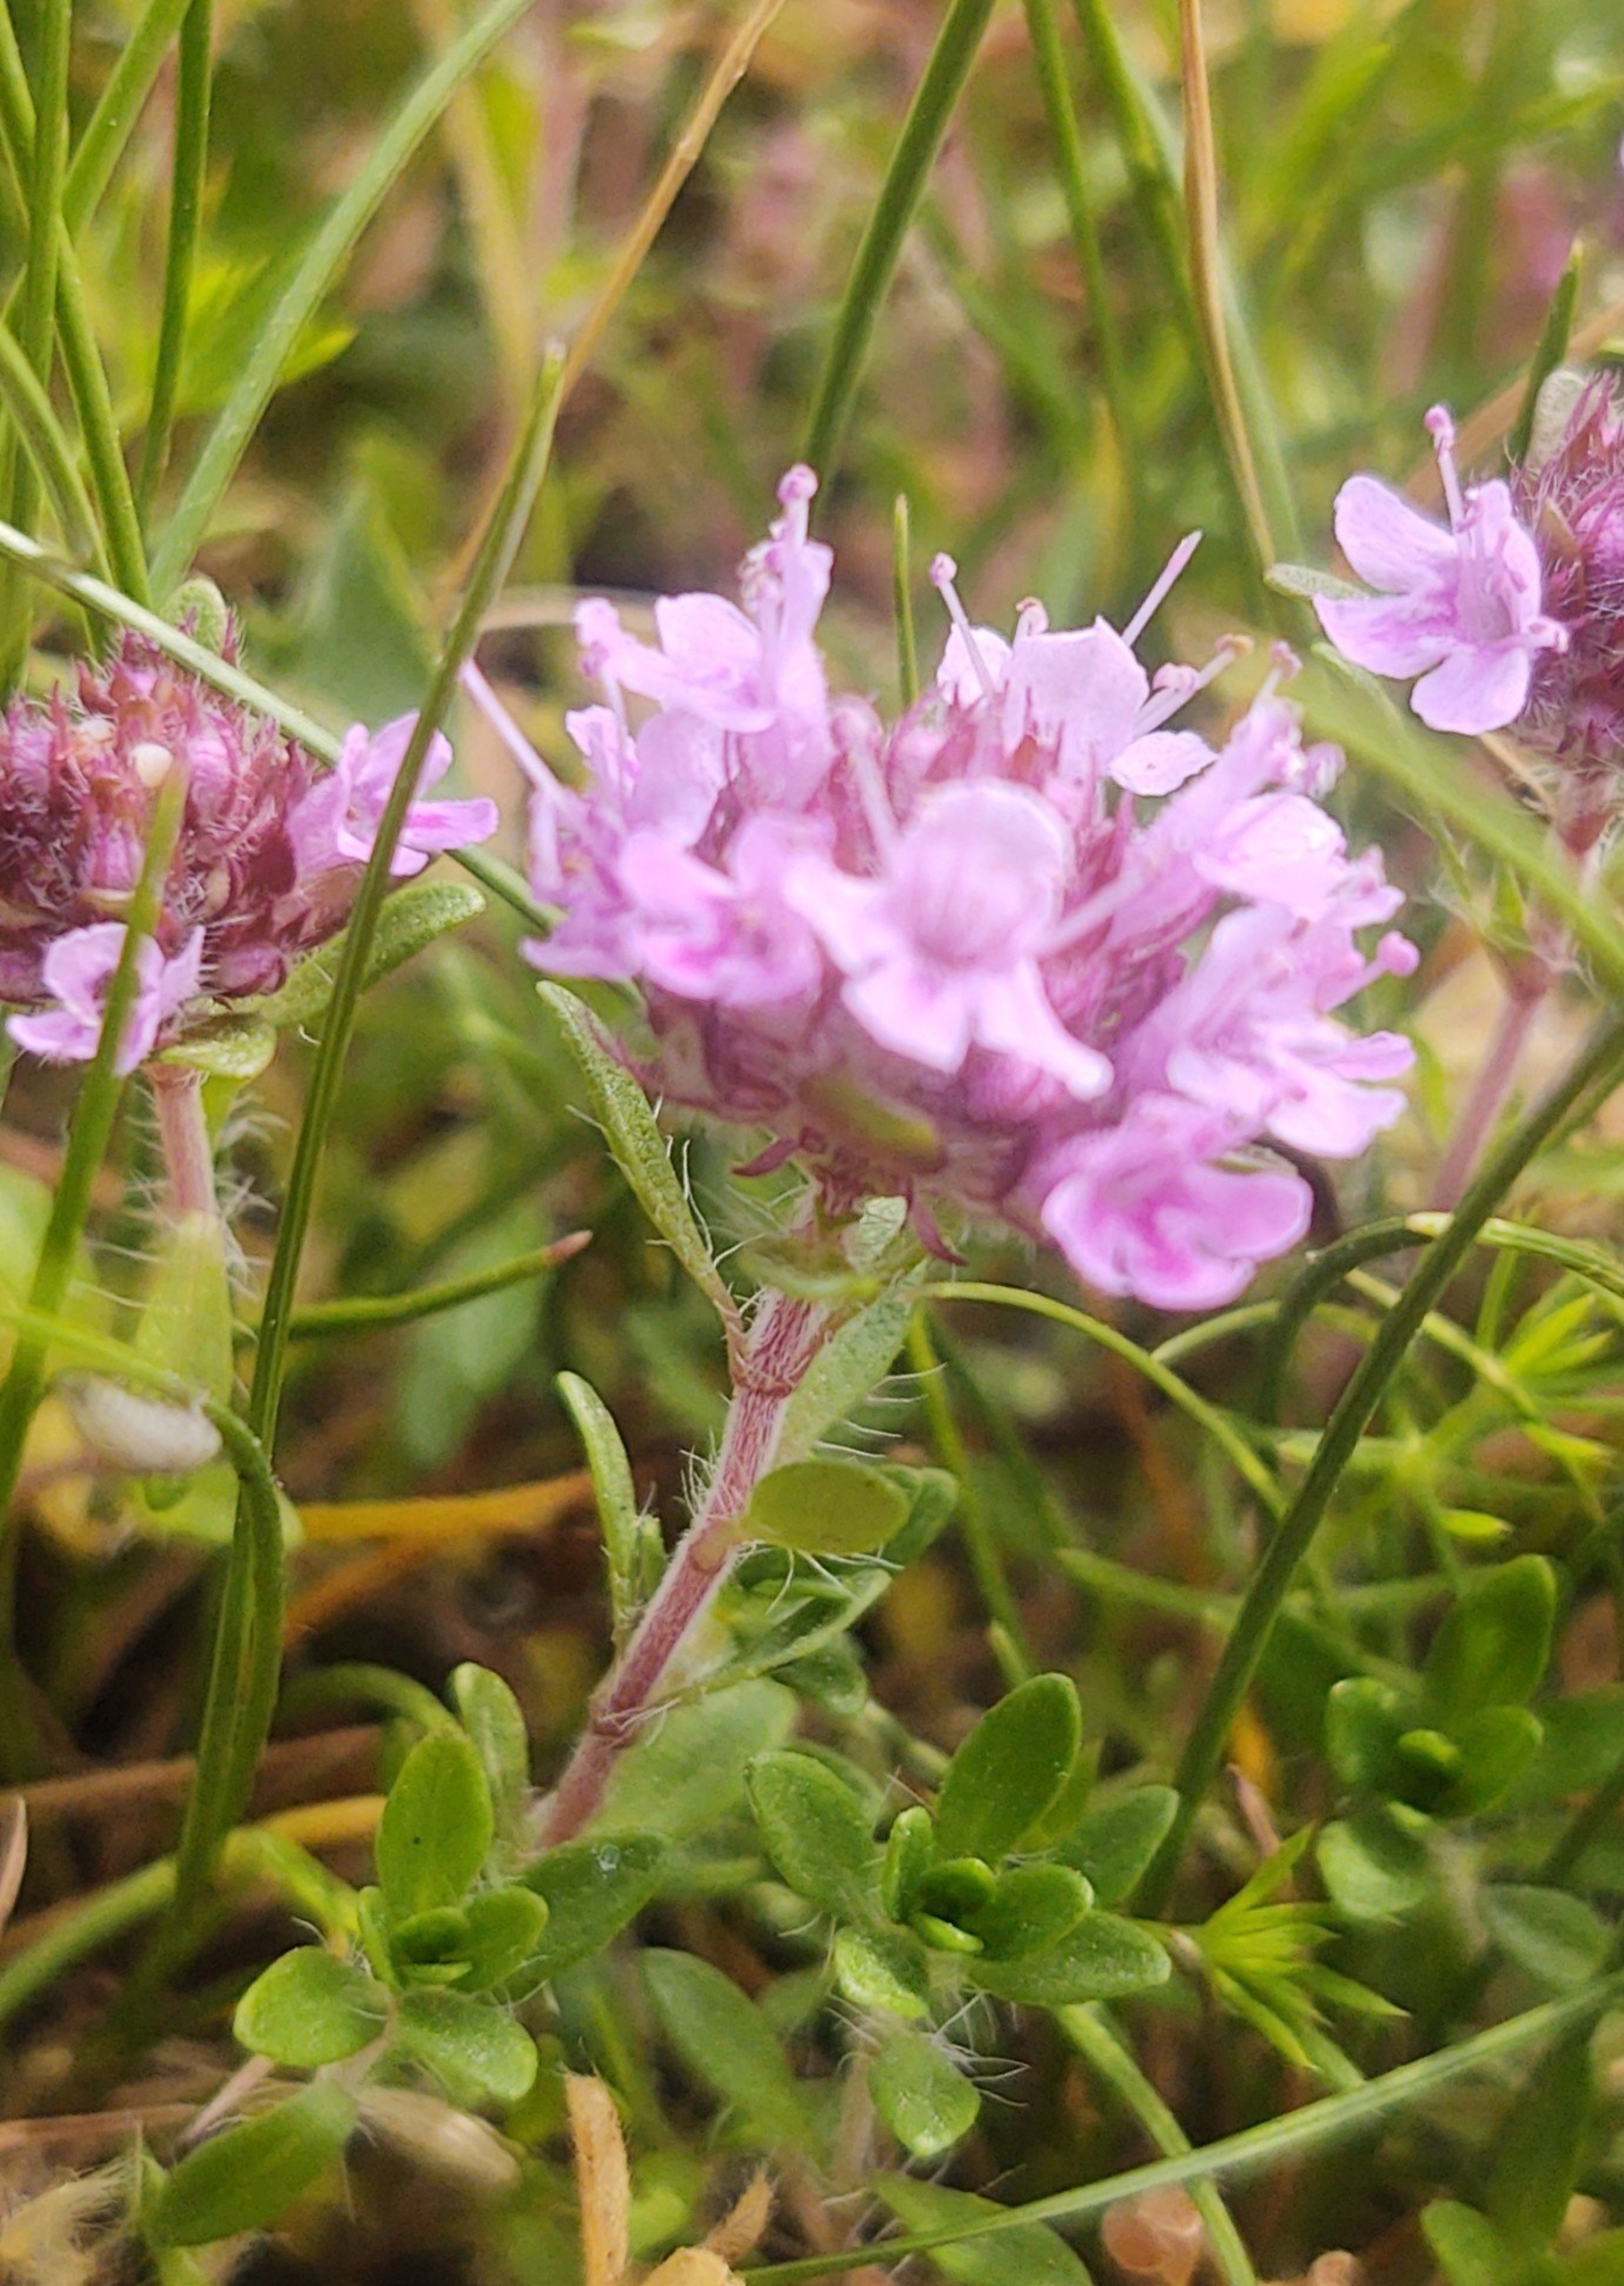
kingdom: Plantae
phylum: Tracheophyta
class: Magnoliopsida
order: Lamiales
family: Lamiaceae
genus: Thymus
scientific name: Thymus serpyllum
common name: Smalbladet timian
